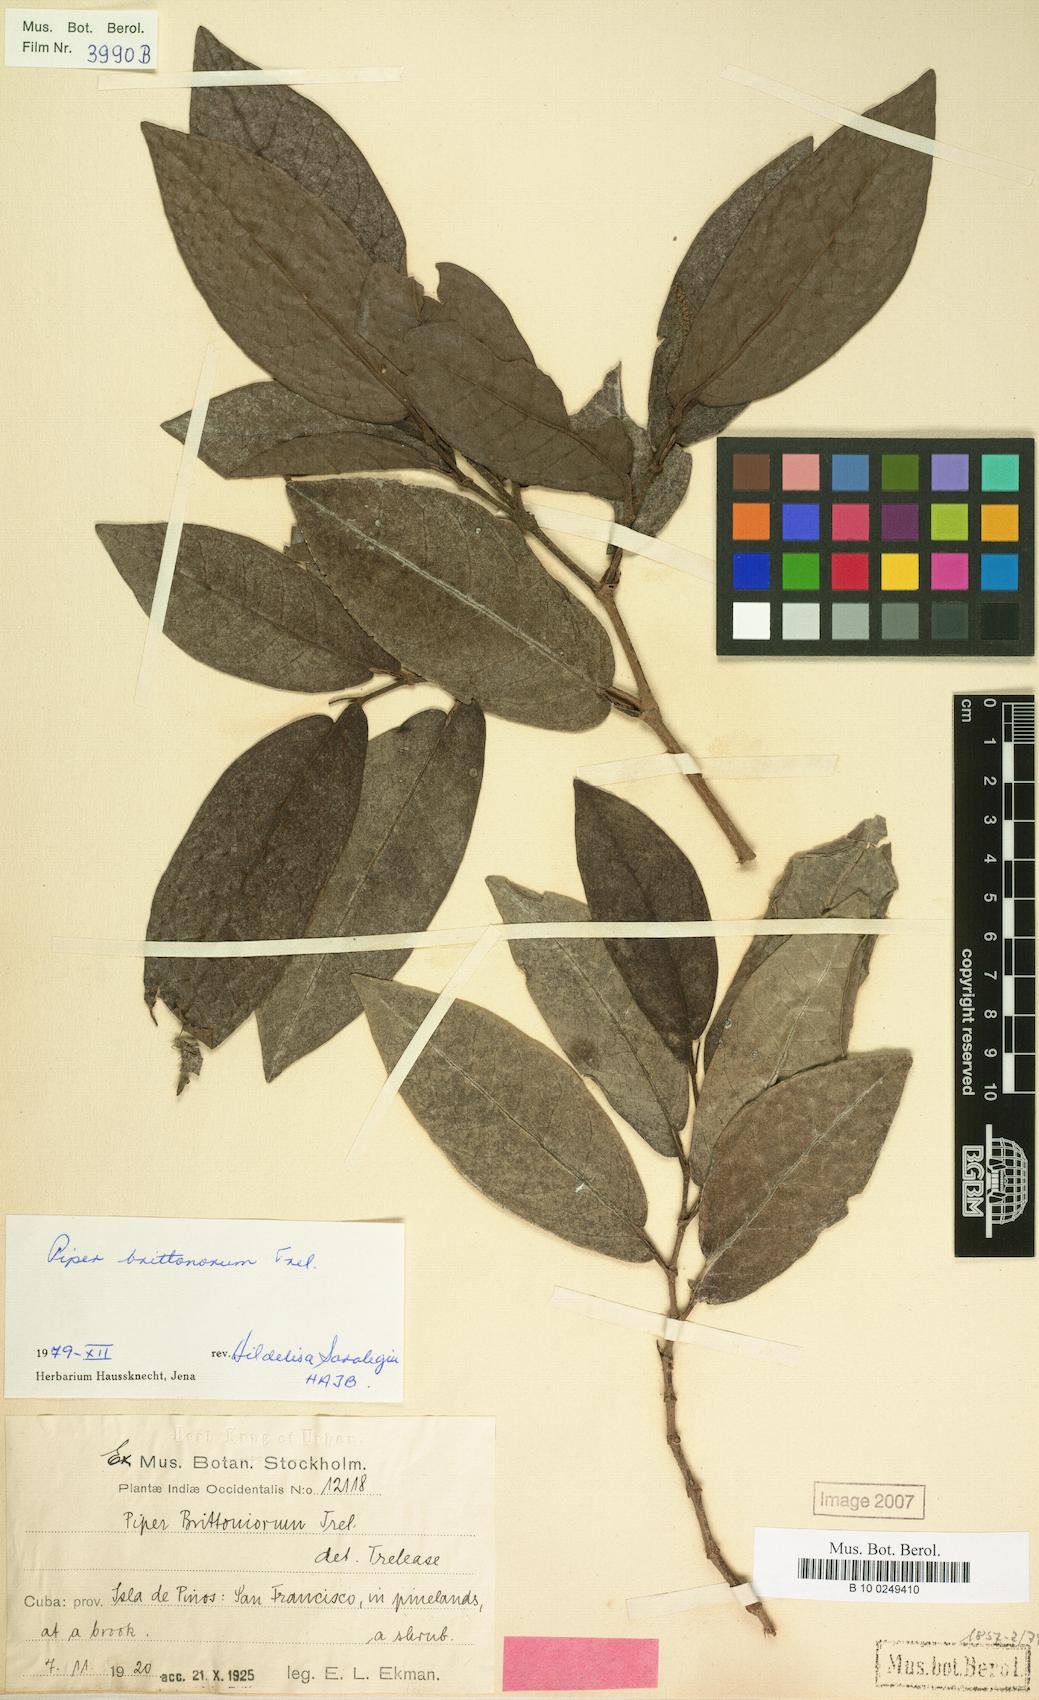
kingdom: Plantae
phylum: Tracheophyta
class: Magnoliopsida
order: Piperales
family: Piperaceae
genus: Piper
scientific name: Piper arboreum
